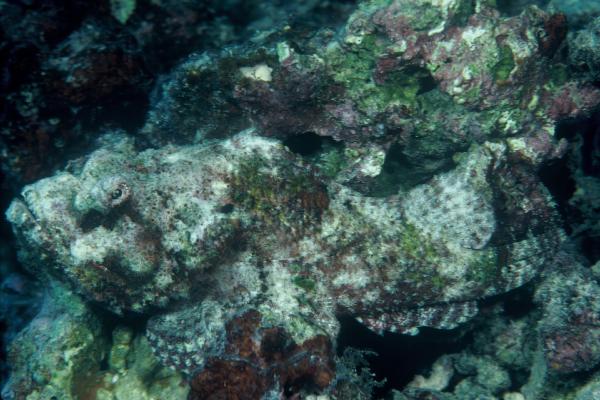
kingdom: Animalia
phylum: Chordata
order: Scorpaeniformes
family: Scorpaenidae
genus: Scorpaenopsis
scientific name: Scorpaenopsis diabolus
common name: False stonefish
